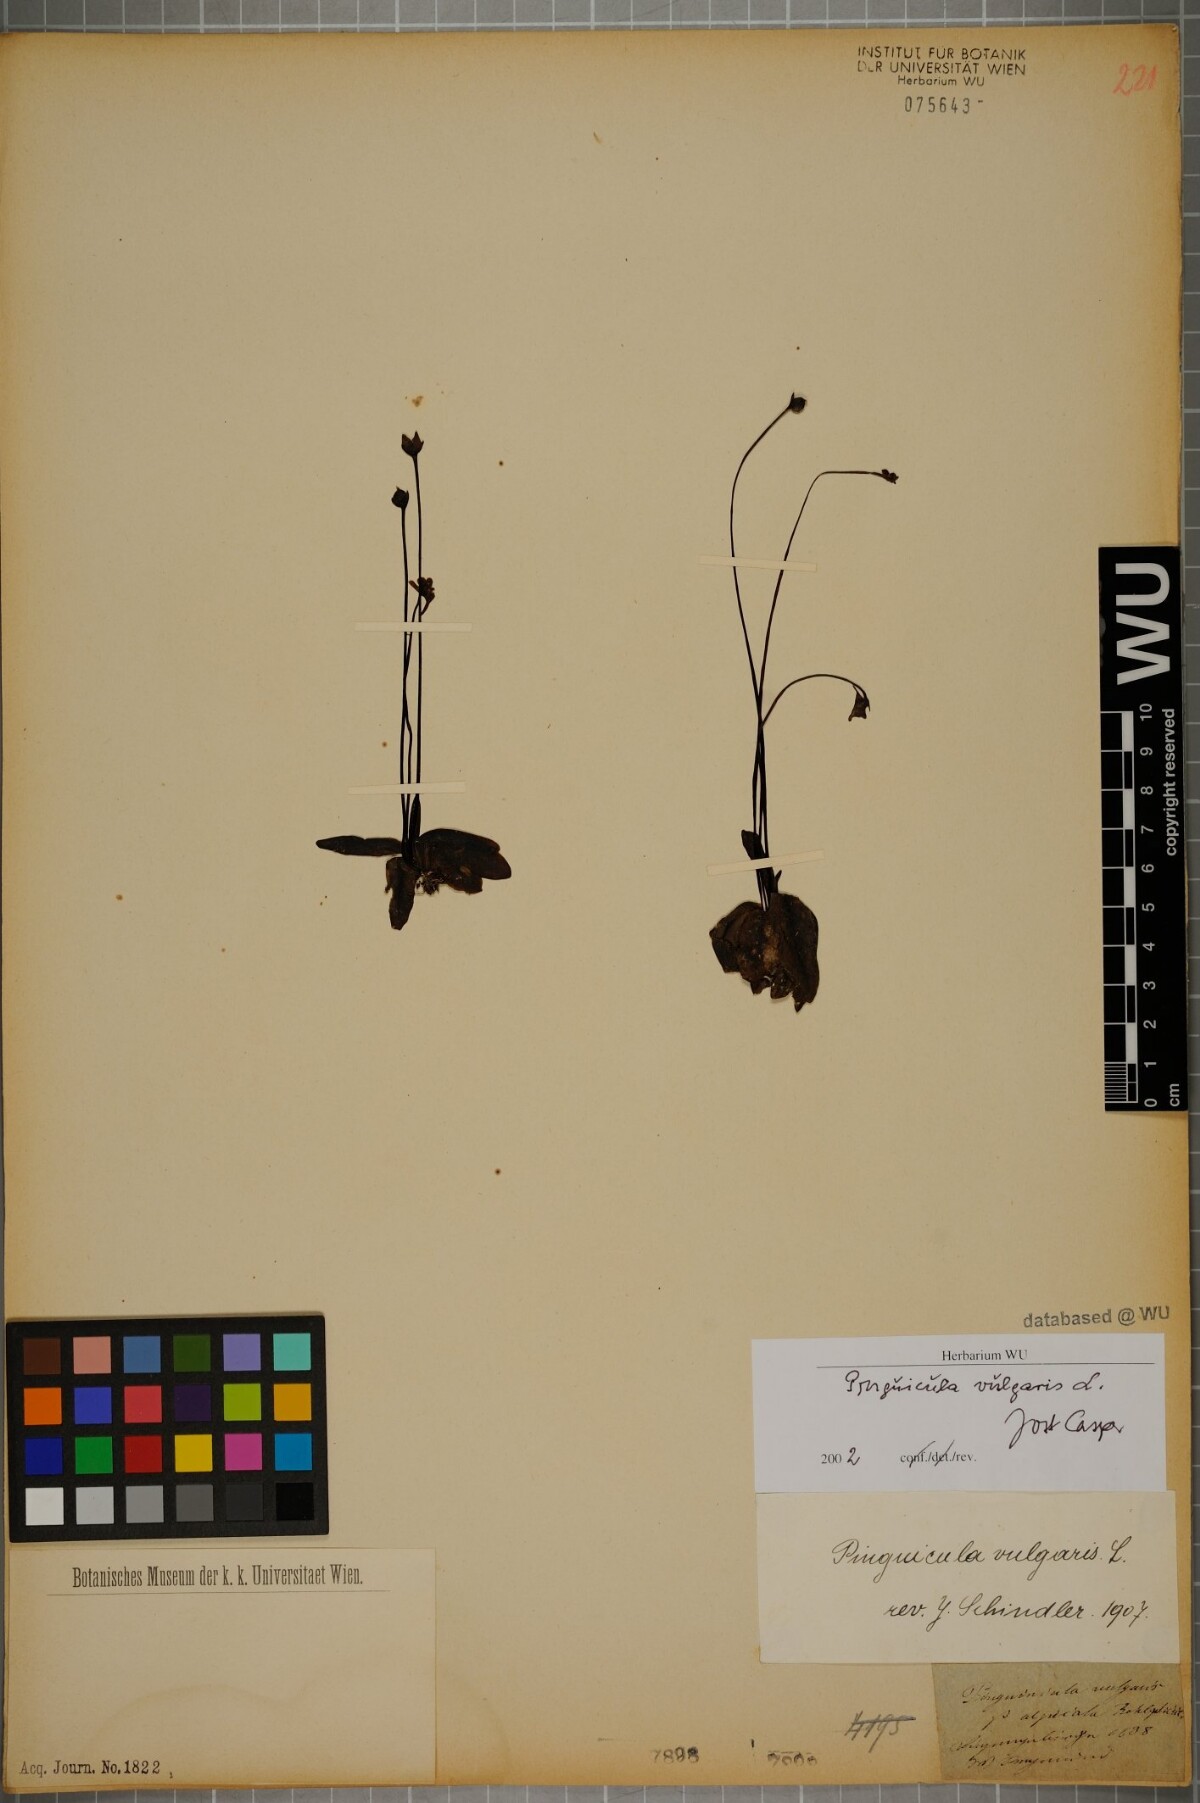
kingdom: Plantae
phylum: Tracheophyta
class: Magnoliopsida
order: Lamiales
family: Lentibulariaceae
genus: Pinguicula
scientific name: Pinguicula vulgaris
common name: Common butterwort
